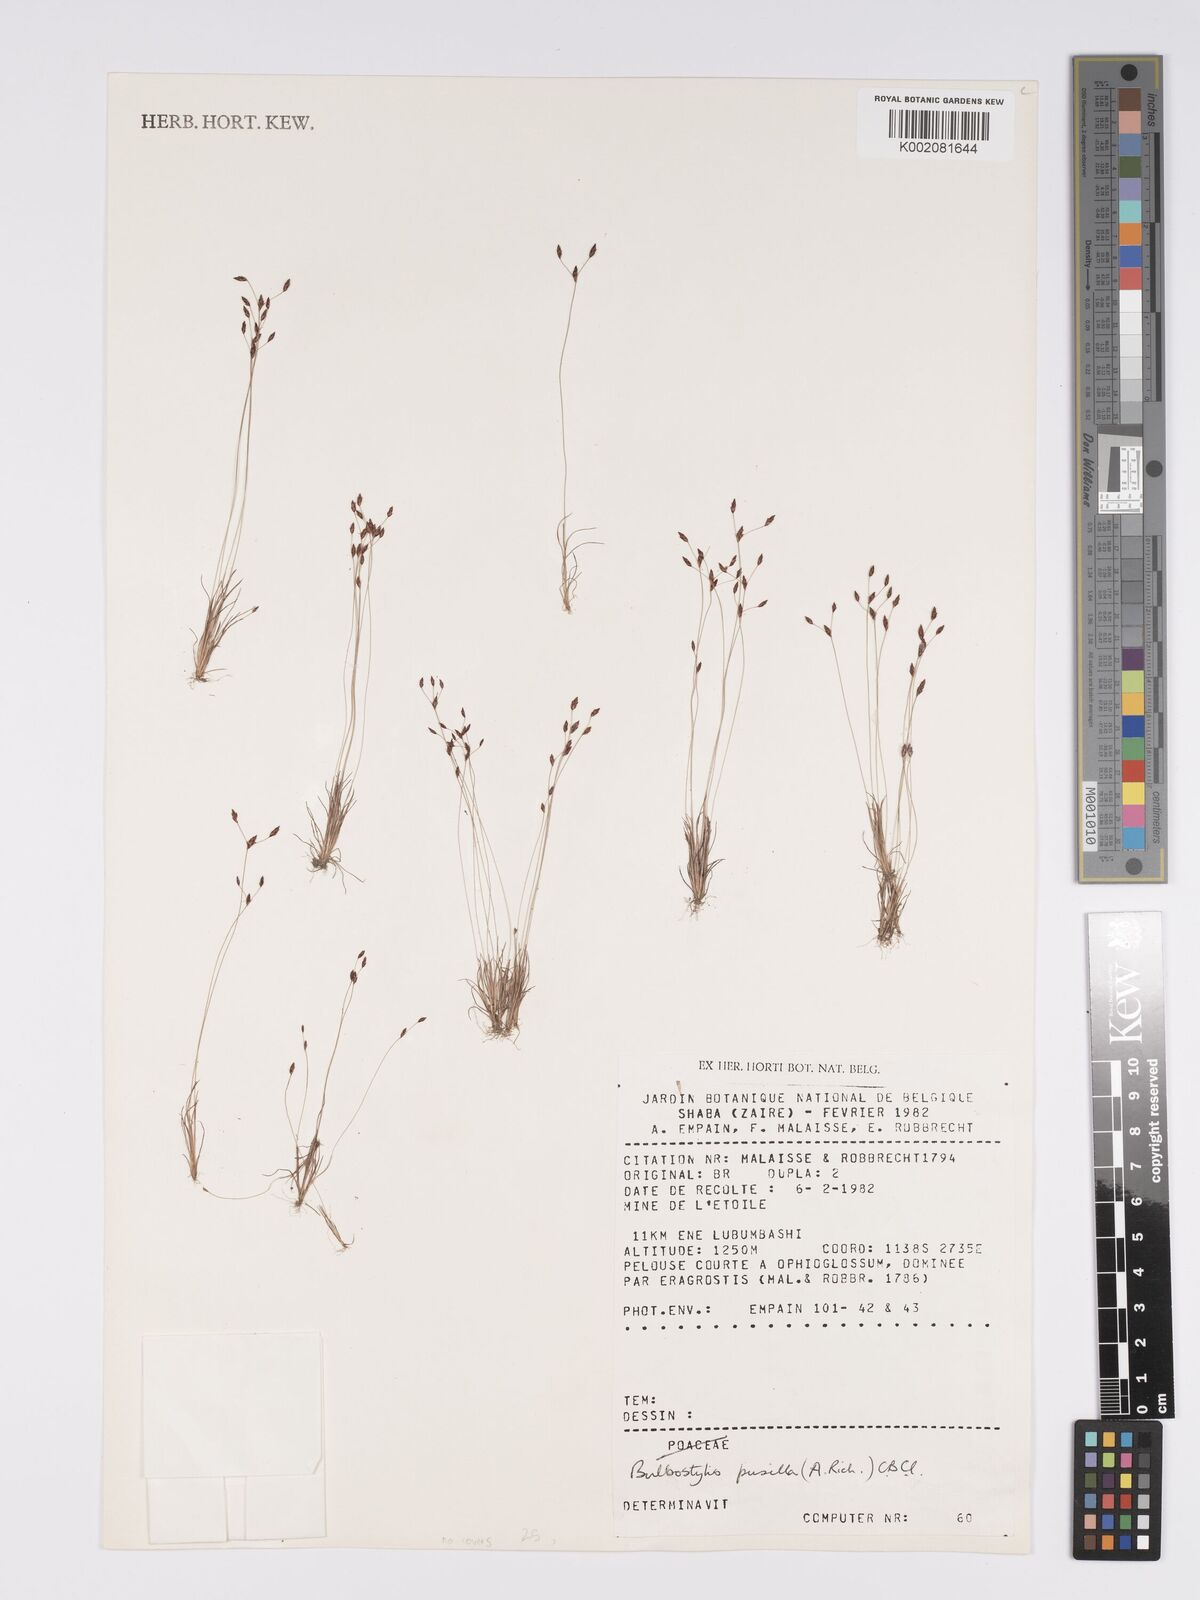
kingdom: Plantae
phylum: Tracheophyta
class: Liliopsida
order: Poales
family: Cyperaceae
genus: Bulbostylis
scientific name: Bulbostylis pusilla
